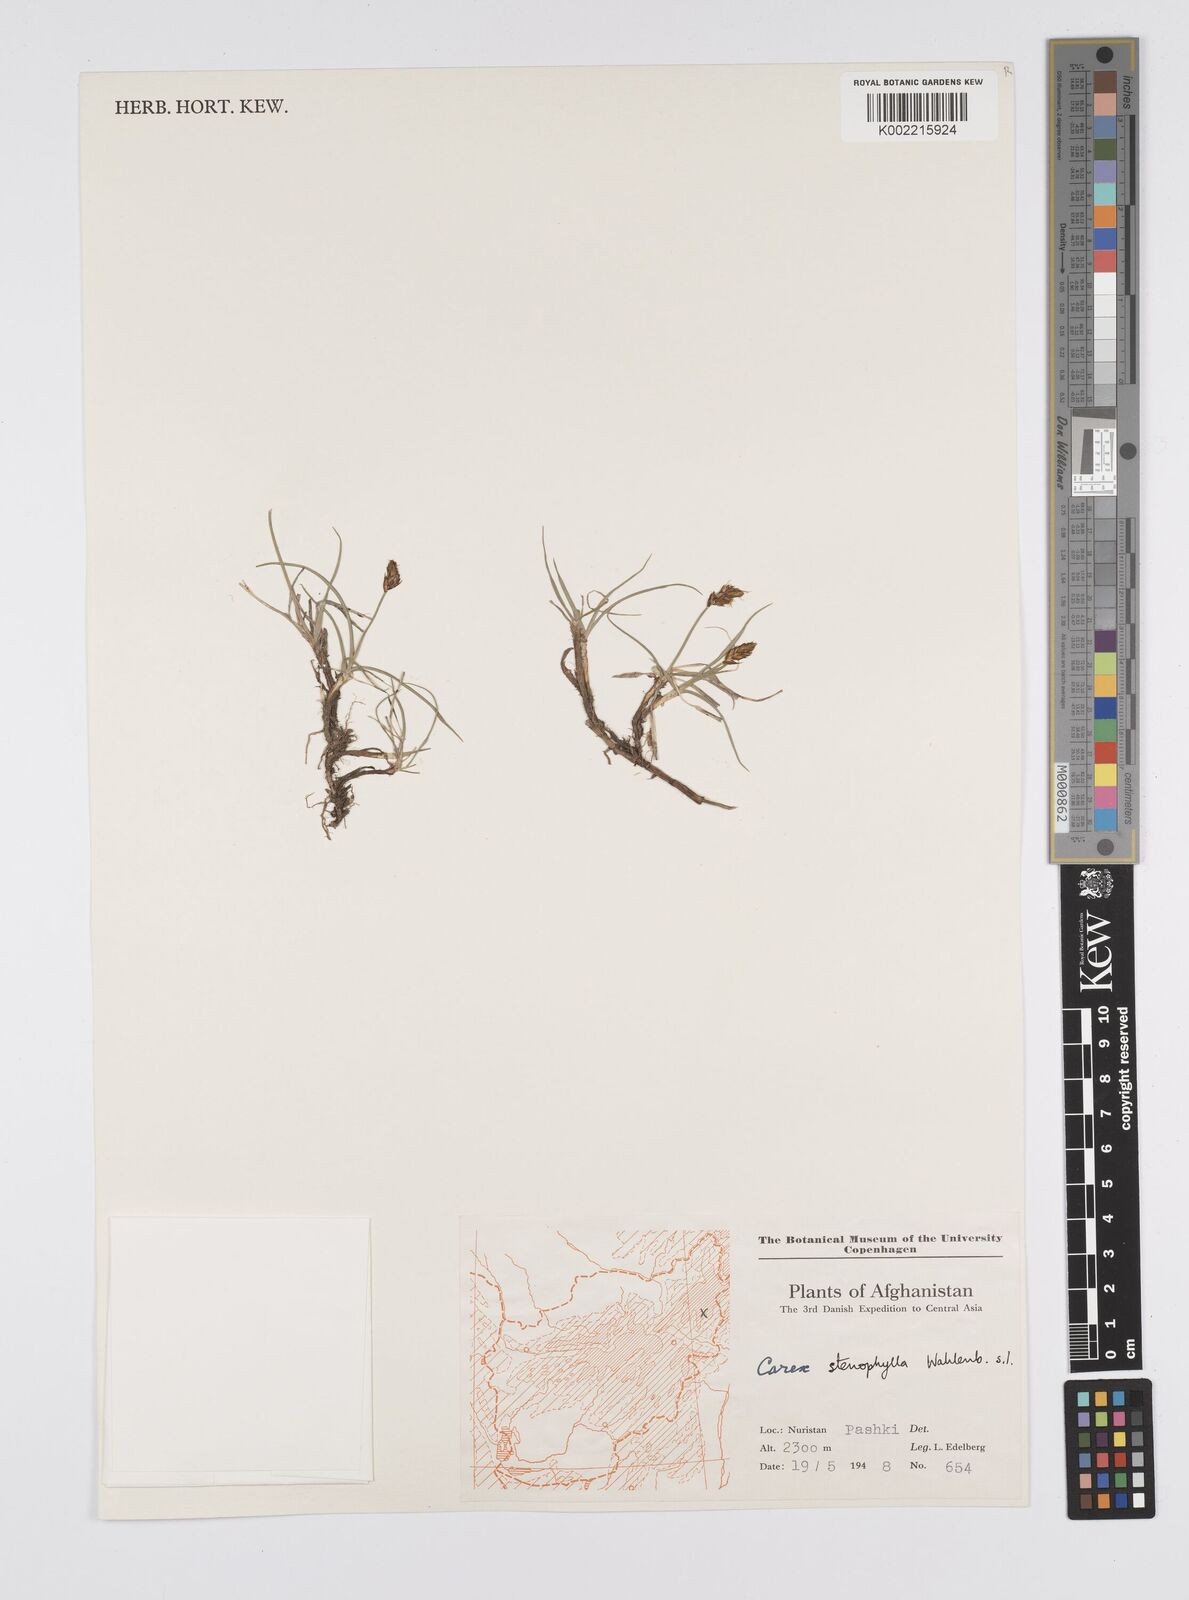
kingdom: Plantae
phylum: Tracheophyta
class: Liliopsida
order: Poales
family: Cyperaceae
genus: Carex
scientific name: Carex stenophylla
